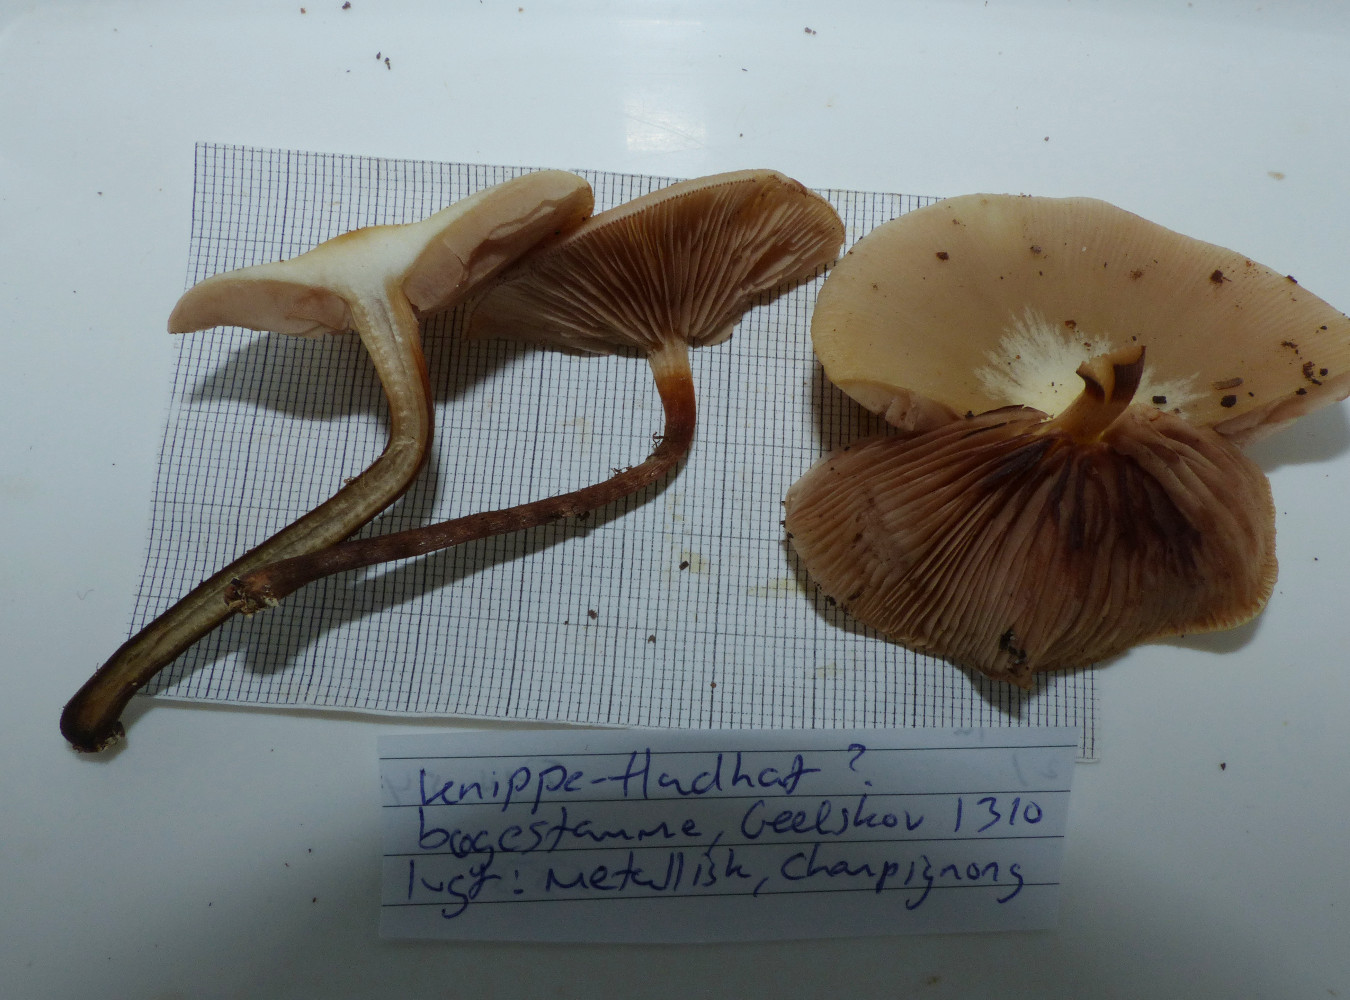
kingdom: Fungi
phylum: Basidiomycota
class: Agaricomycetes
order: Agaricales
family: Strophariaceae
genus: Kuehneromyces
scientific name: Kuehneromyces mutabilis
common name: foranderlig skælhat
